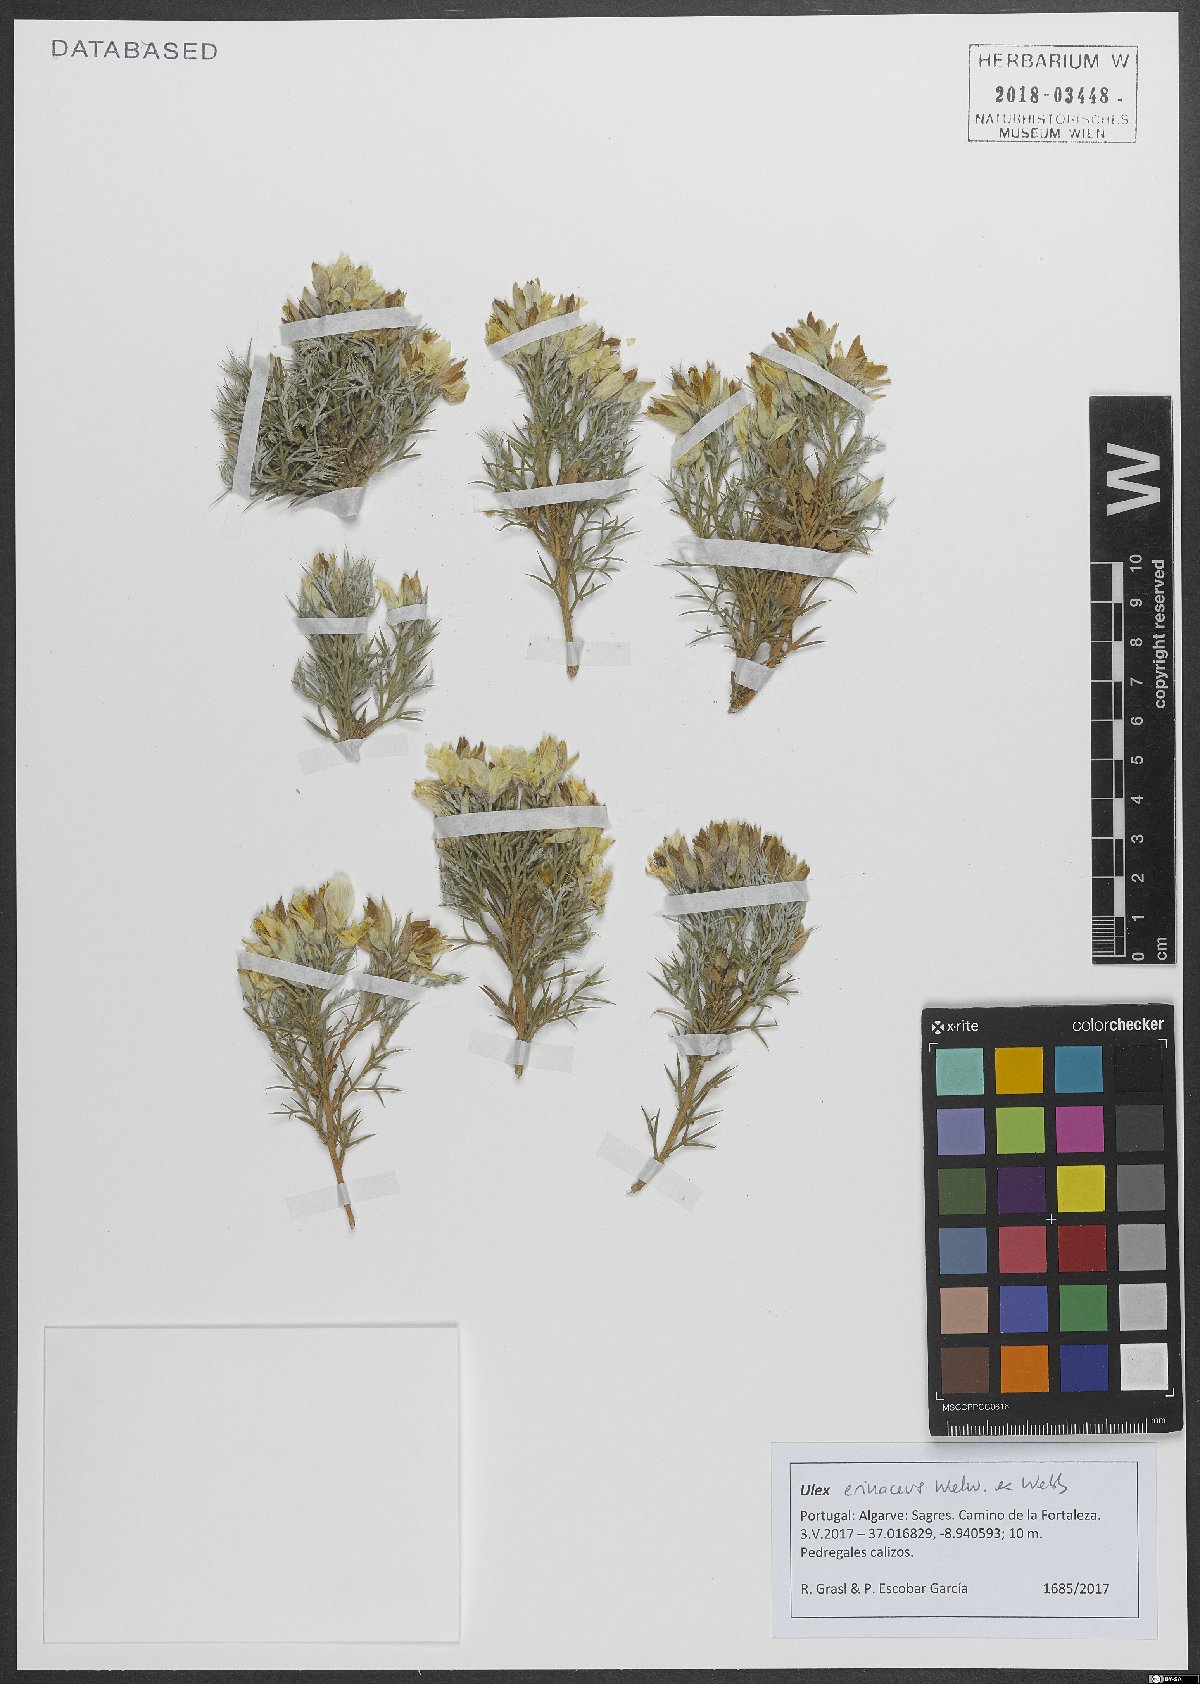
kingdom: Plantae
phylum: Tracheophyta
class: Magnoliopsida
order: Fabales
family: Fabaceae
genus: Ulex
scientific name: Ulex erinaceus
